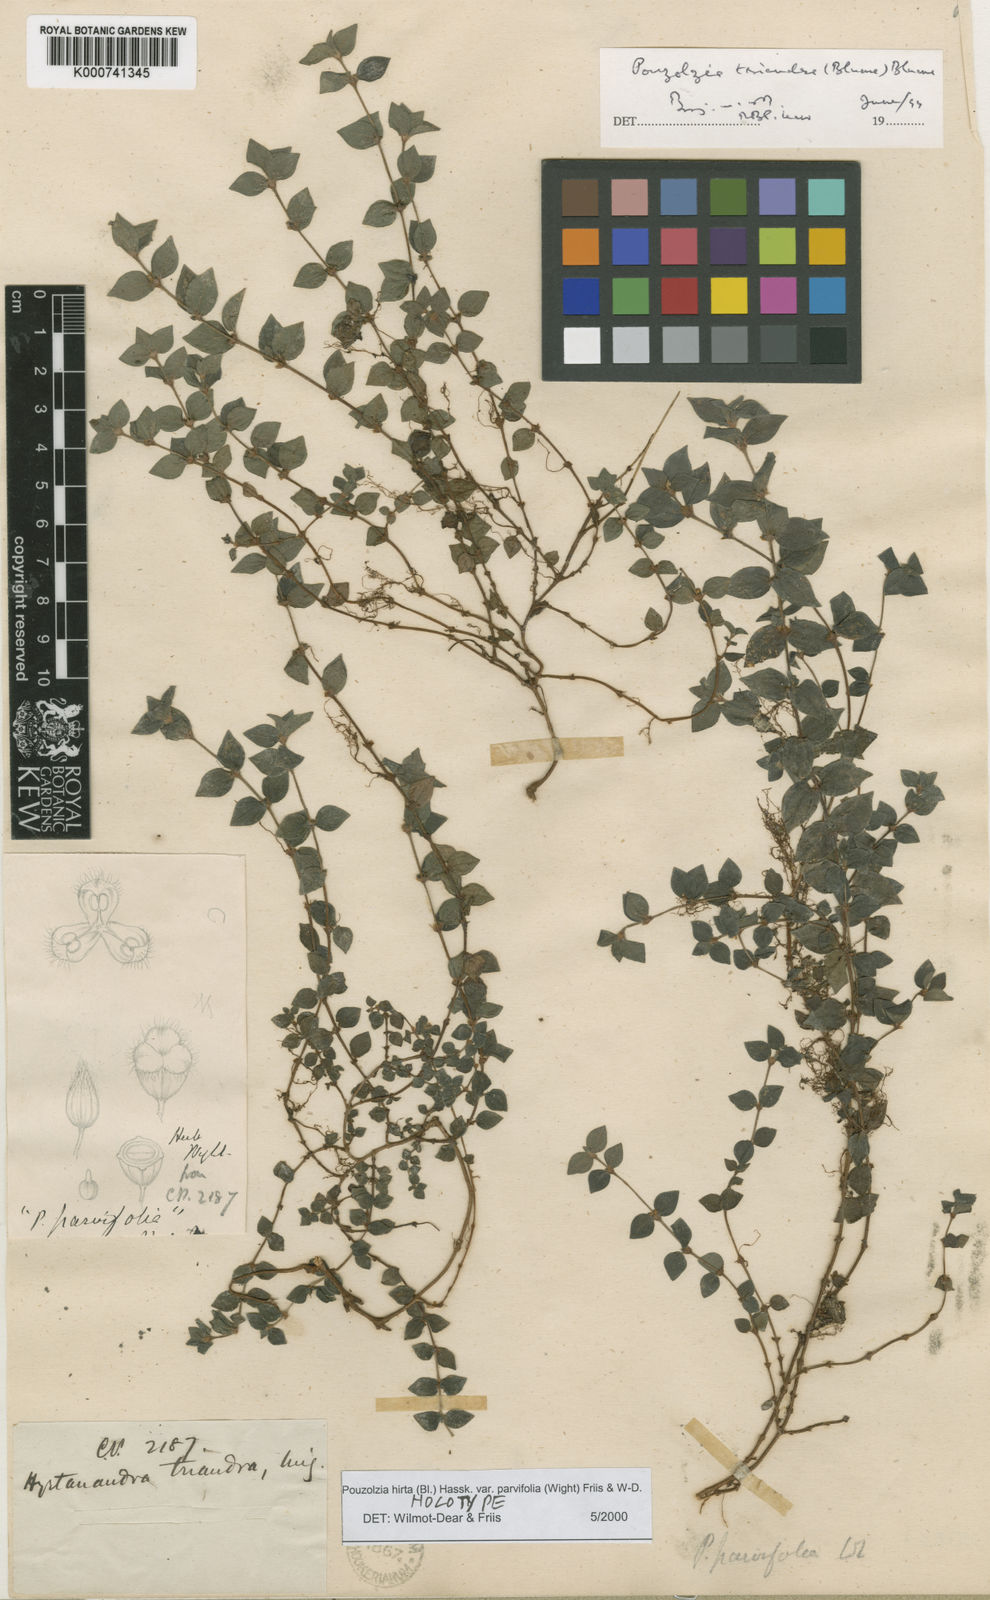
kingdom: Plantae
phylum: Tracheophyta
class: Magnoliopsida
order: Rosales
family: Urticaceae
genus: Gonostegia
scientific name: Gonostegia parvifolia
